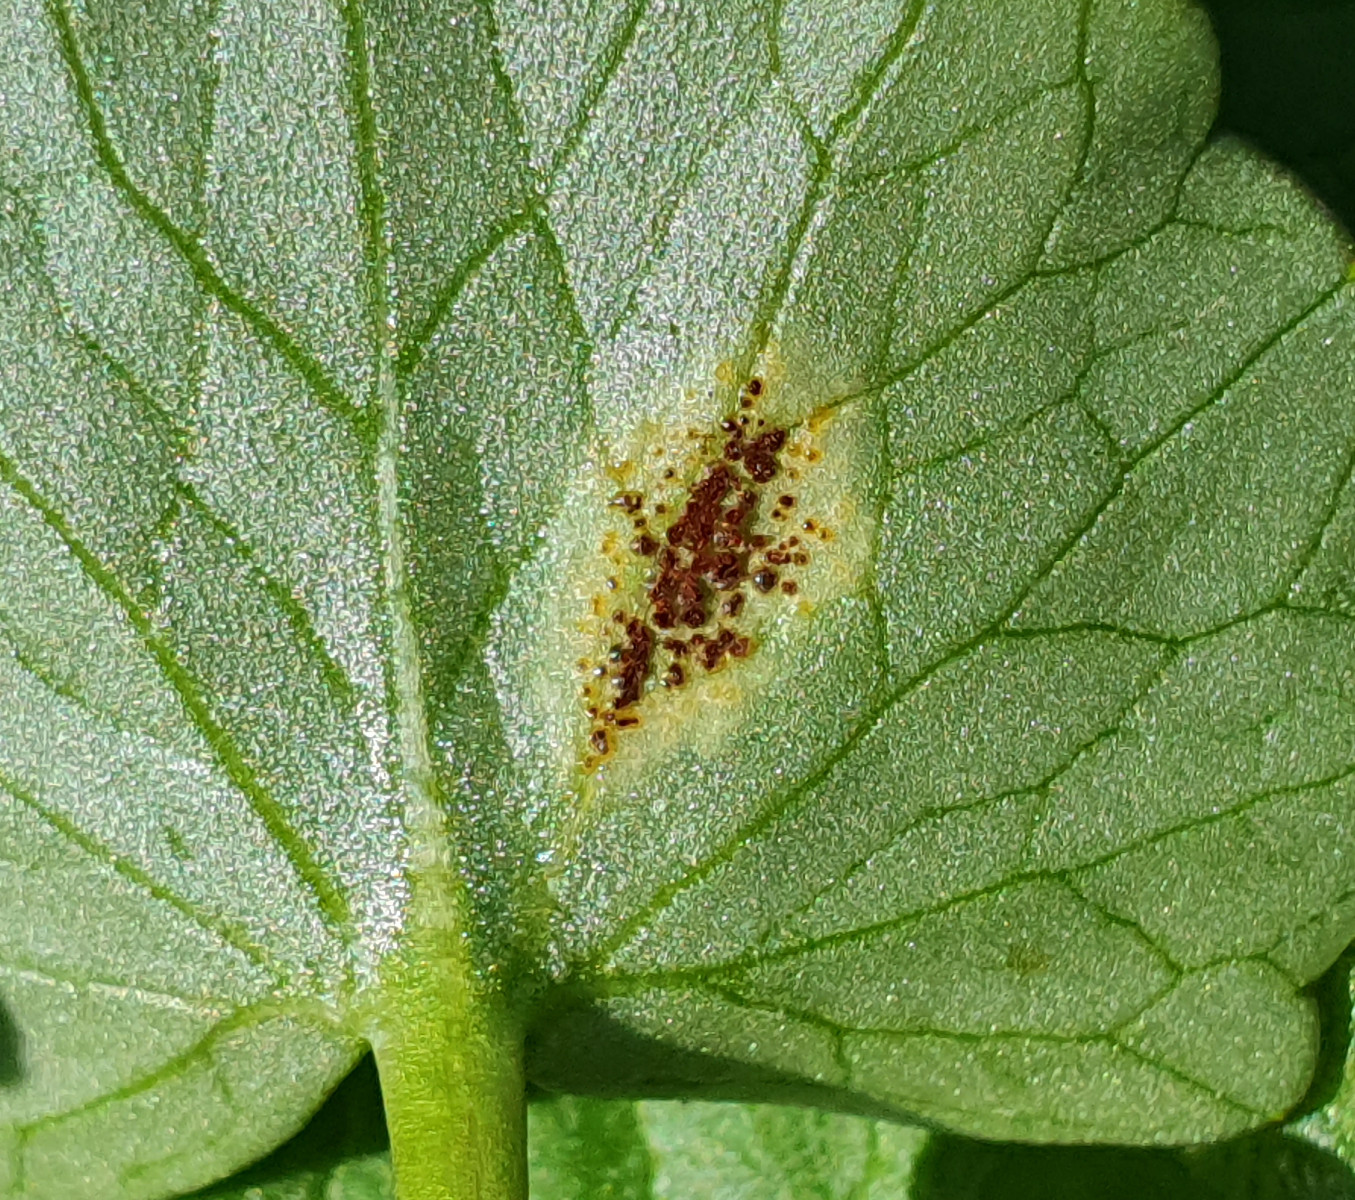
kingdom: Fungi
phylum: Basidiomycota
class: Pucciniomycetes
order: Pucciniales
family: Pucciniaceae
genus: Uromyces
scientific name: Uromyces ficariae
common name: vorterod-encellerust
